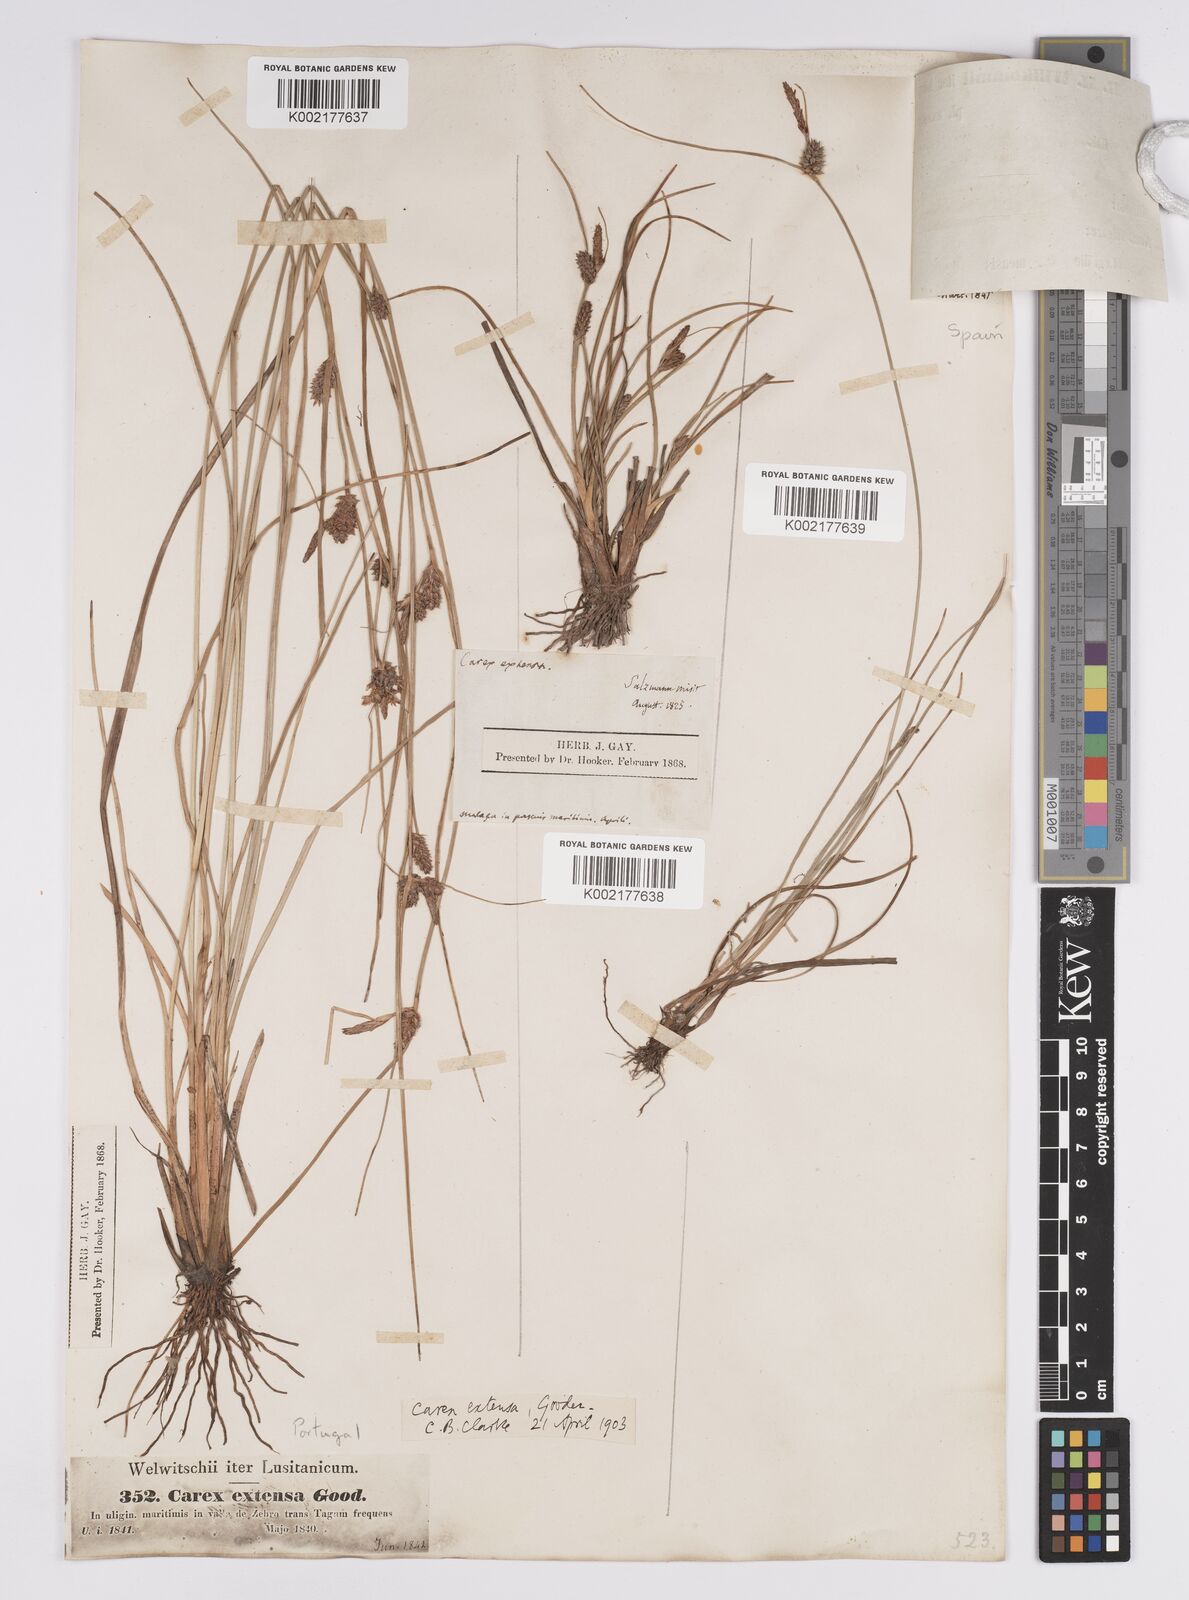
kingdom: Plantae
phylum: Tracheophyta
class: Liliopsida
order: Poales
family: Cyperaceae
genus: Carex
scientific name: Carex extensa
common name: Long-bracted sedge
